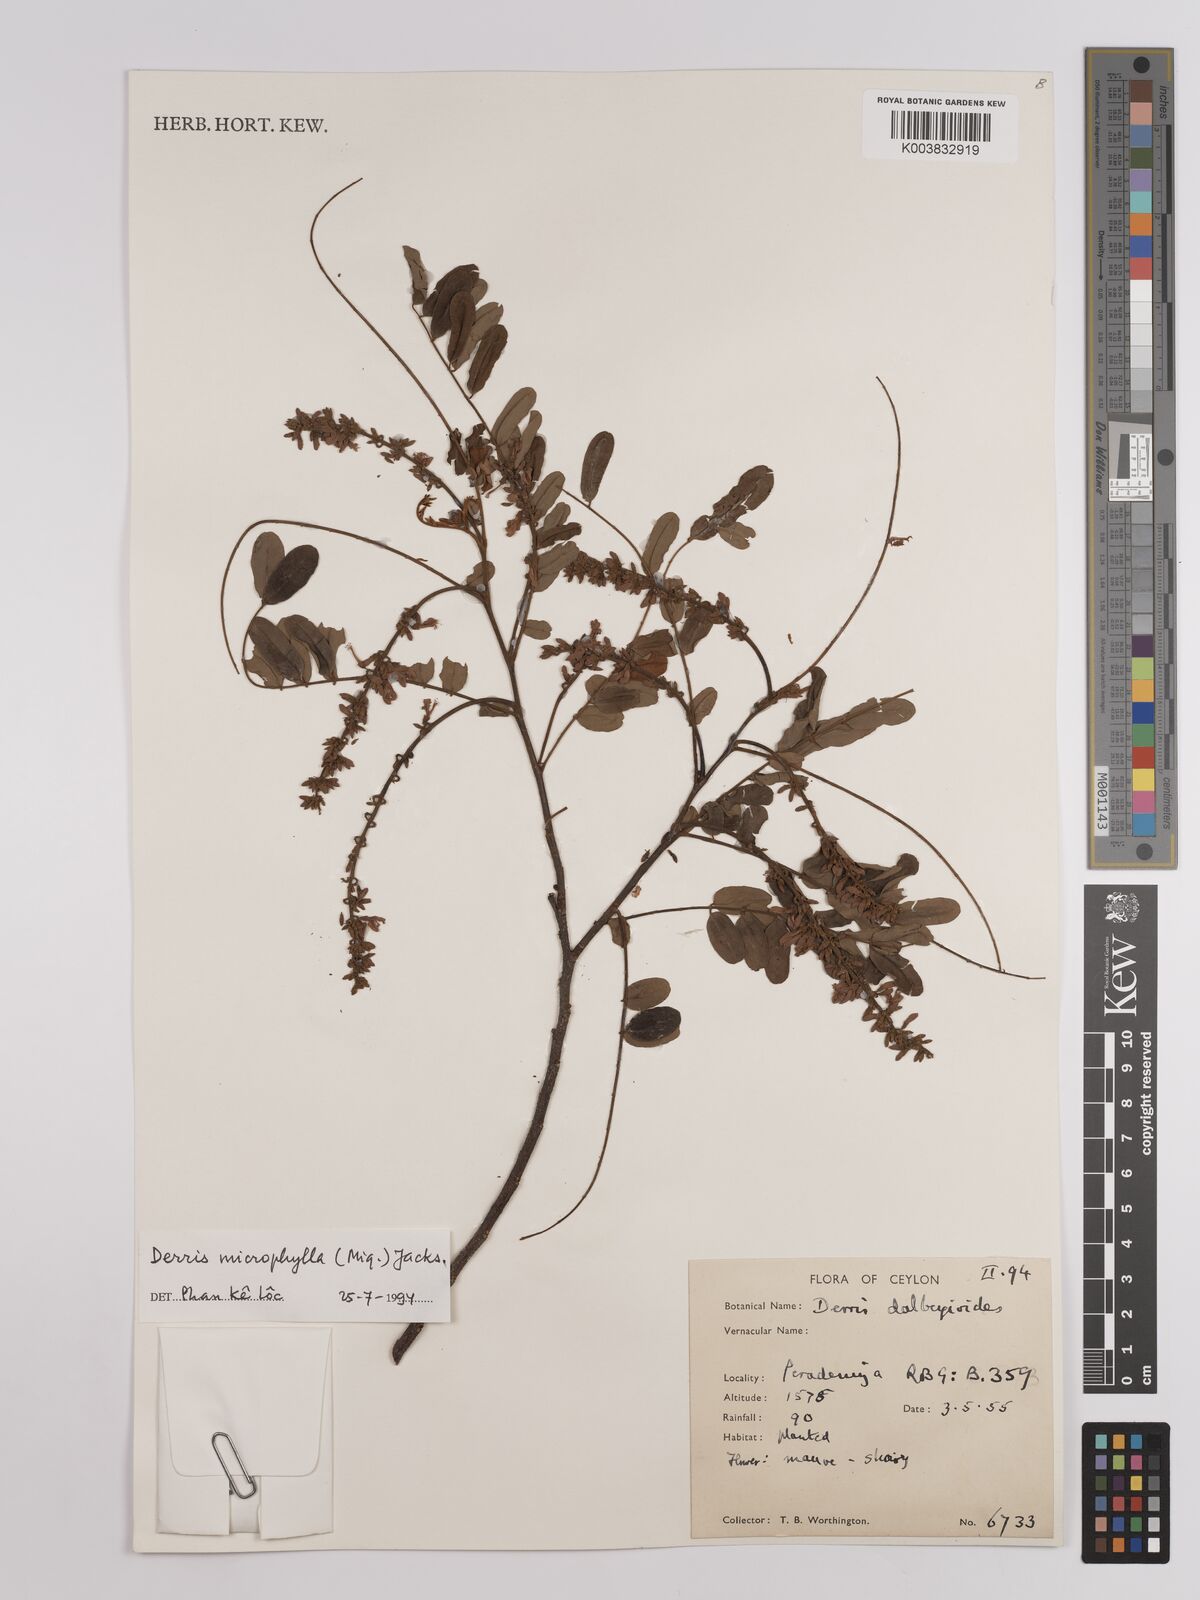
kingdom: Plantae
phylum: Tracheophyta
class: Magnoliopsida
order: Fabales
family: Fabaceae
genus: Brachypterum
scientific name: Brachypterum microphyllum
